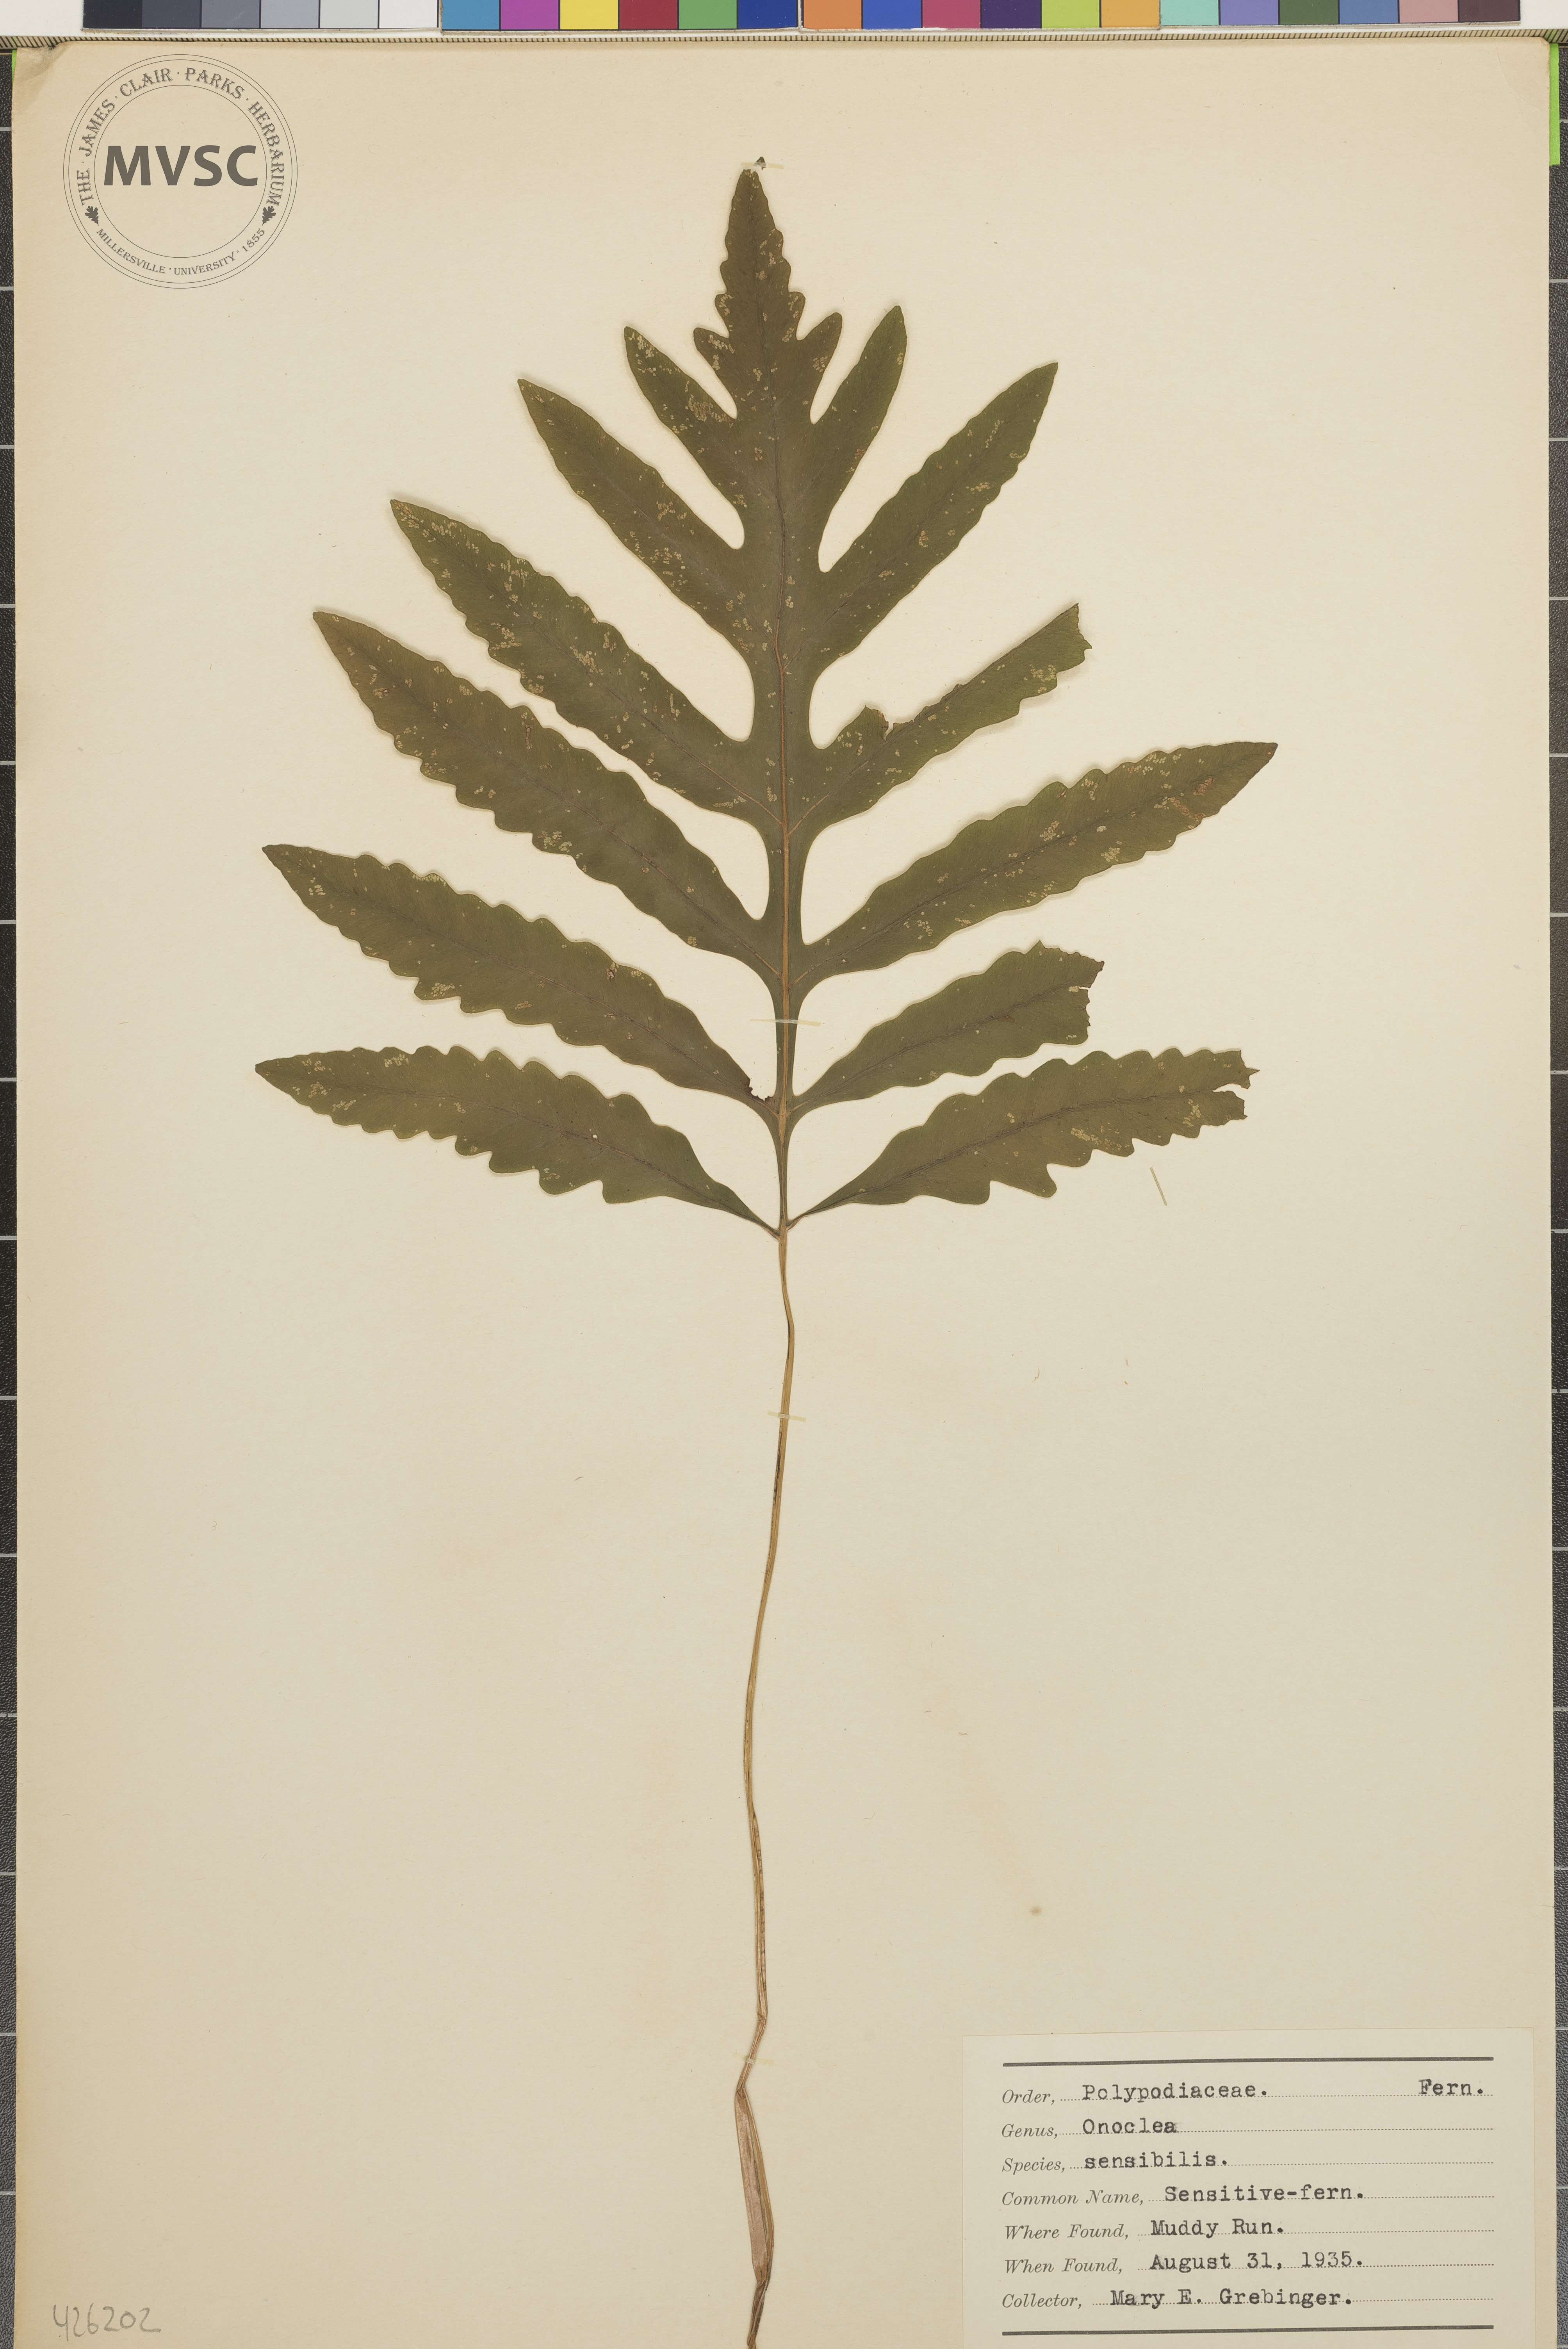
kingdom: Plantae
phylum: Tracheophyta
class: Polypodiopsida
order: Polypodiales
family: Onocleaceae
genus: Onoclea
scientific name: Onoclea sensibilis
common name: Sensitive fern
